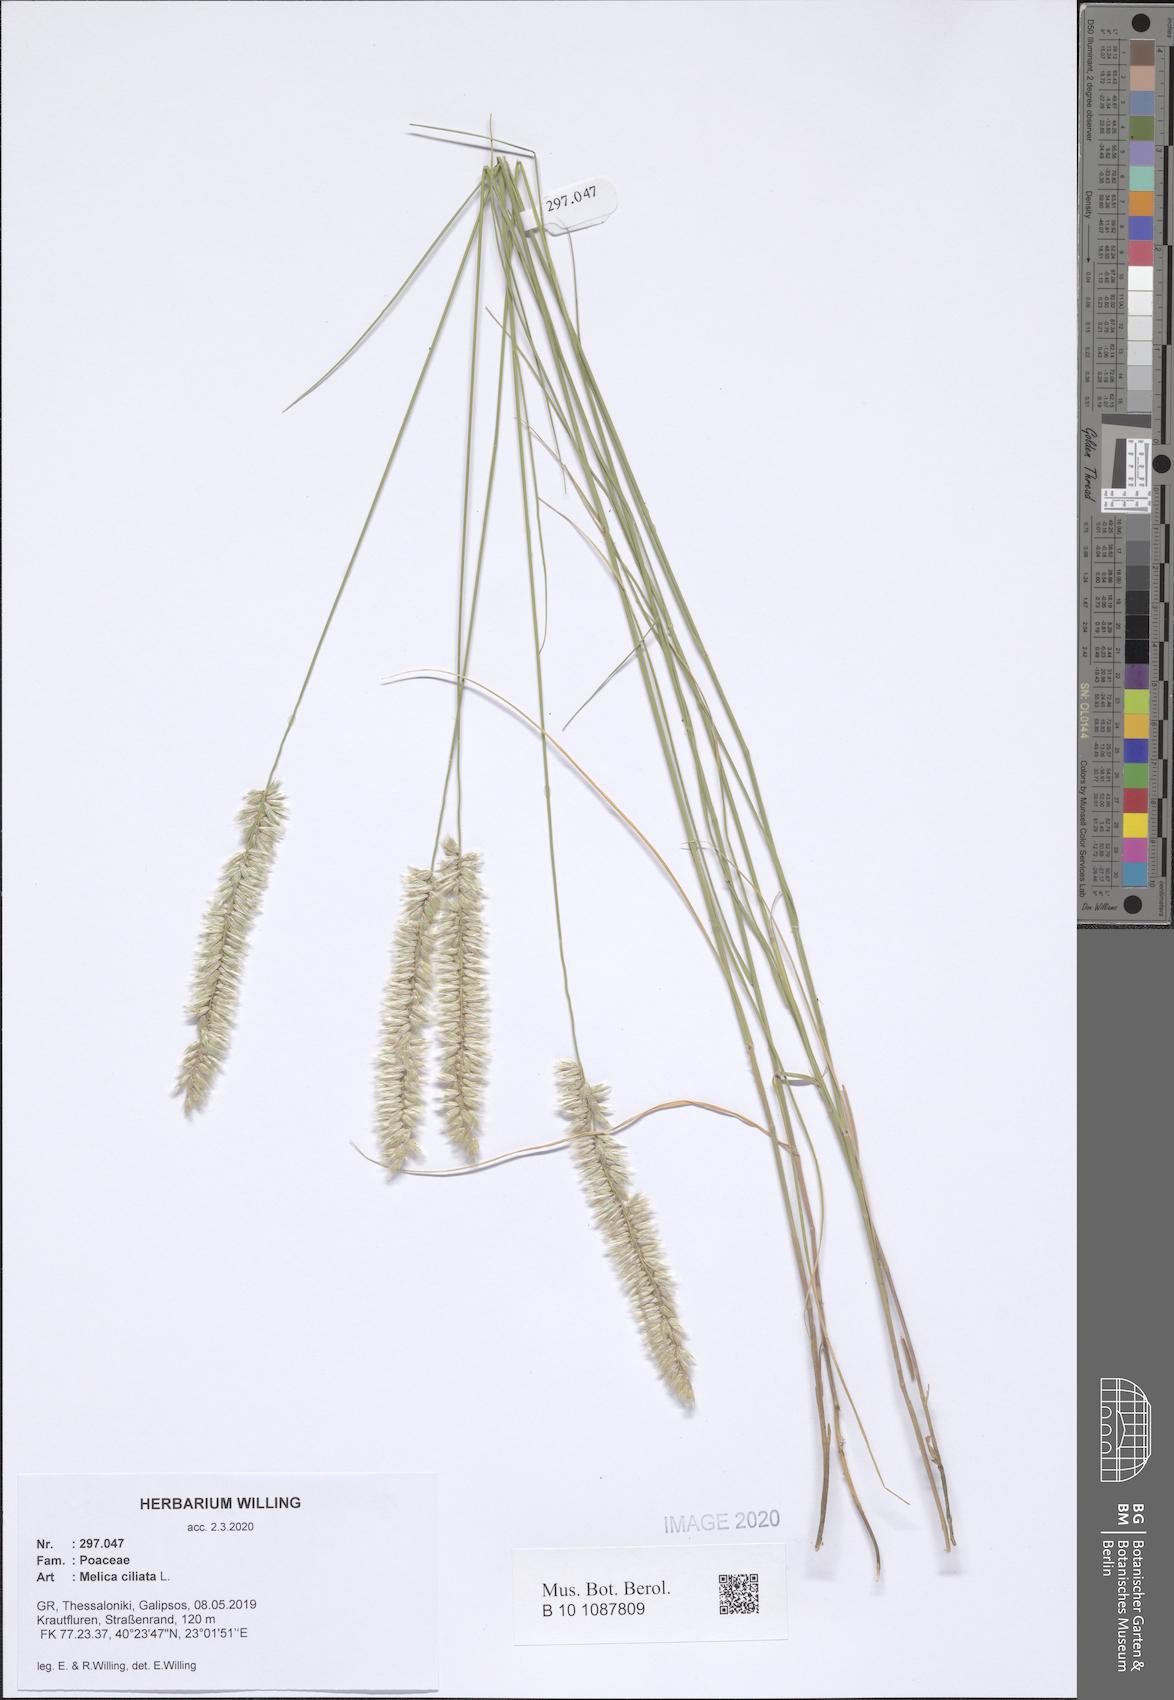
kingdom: Plantae
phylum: Tracheophyta
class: Liliopsida
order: Poales
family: Poaceae
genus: Melica
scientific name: Melica ciliata
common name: Hairy melicgrass
